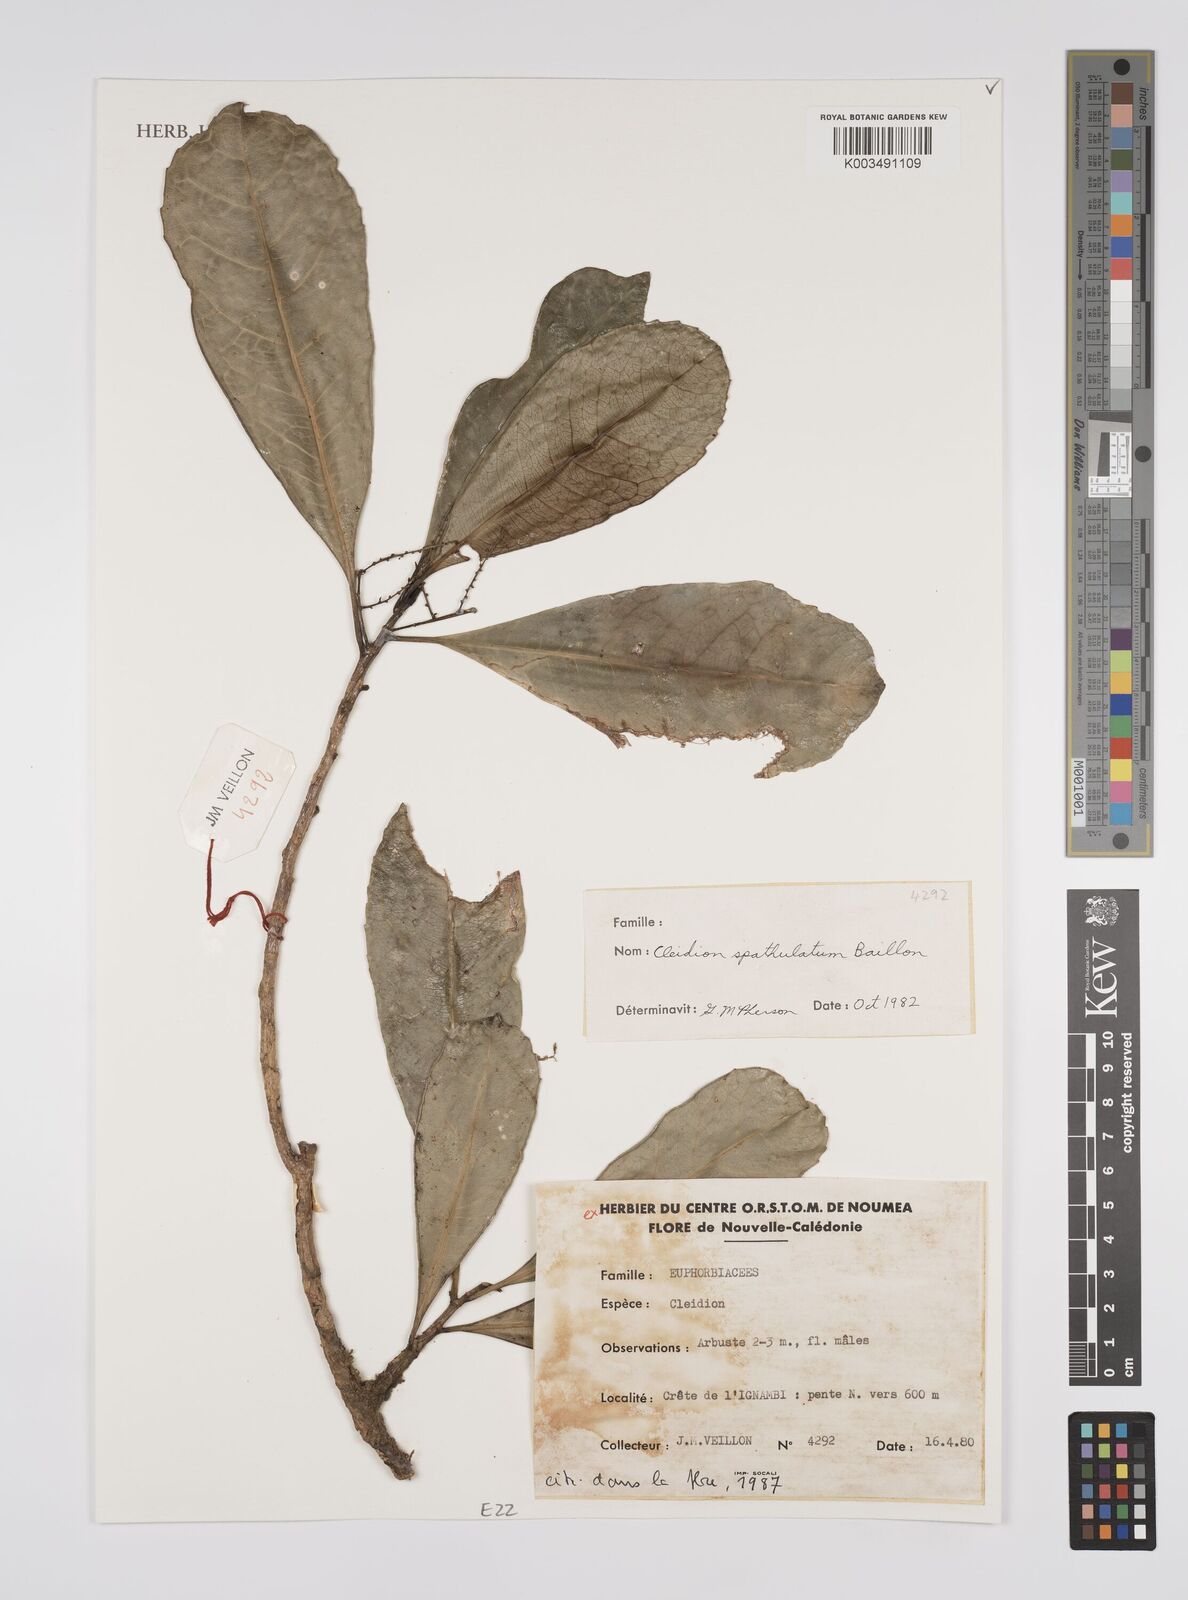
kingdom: Plantae
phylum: Tracheophyta
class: Magnoliopsida
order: Malpighiales
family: Euphorbiaceae
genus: Cleidion
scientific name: Cleidion spathulatum
